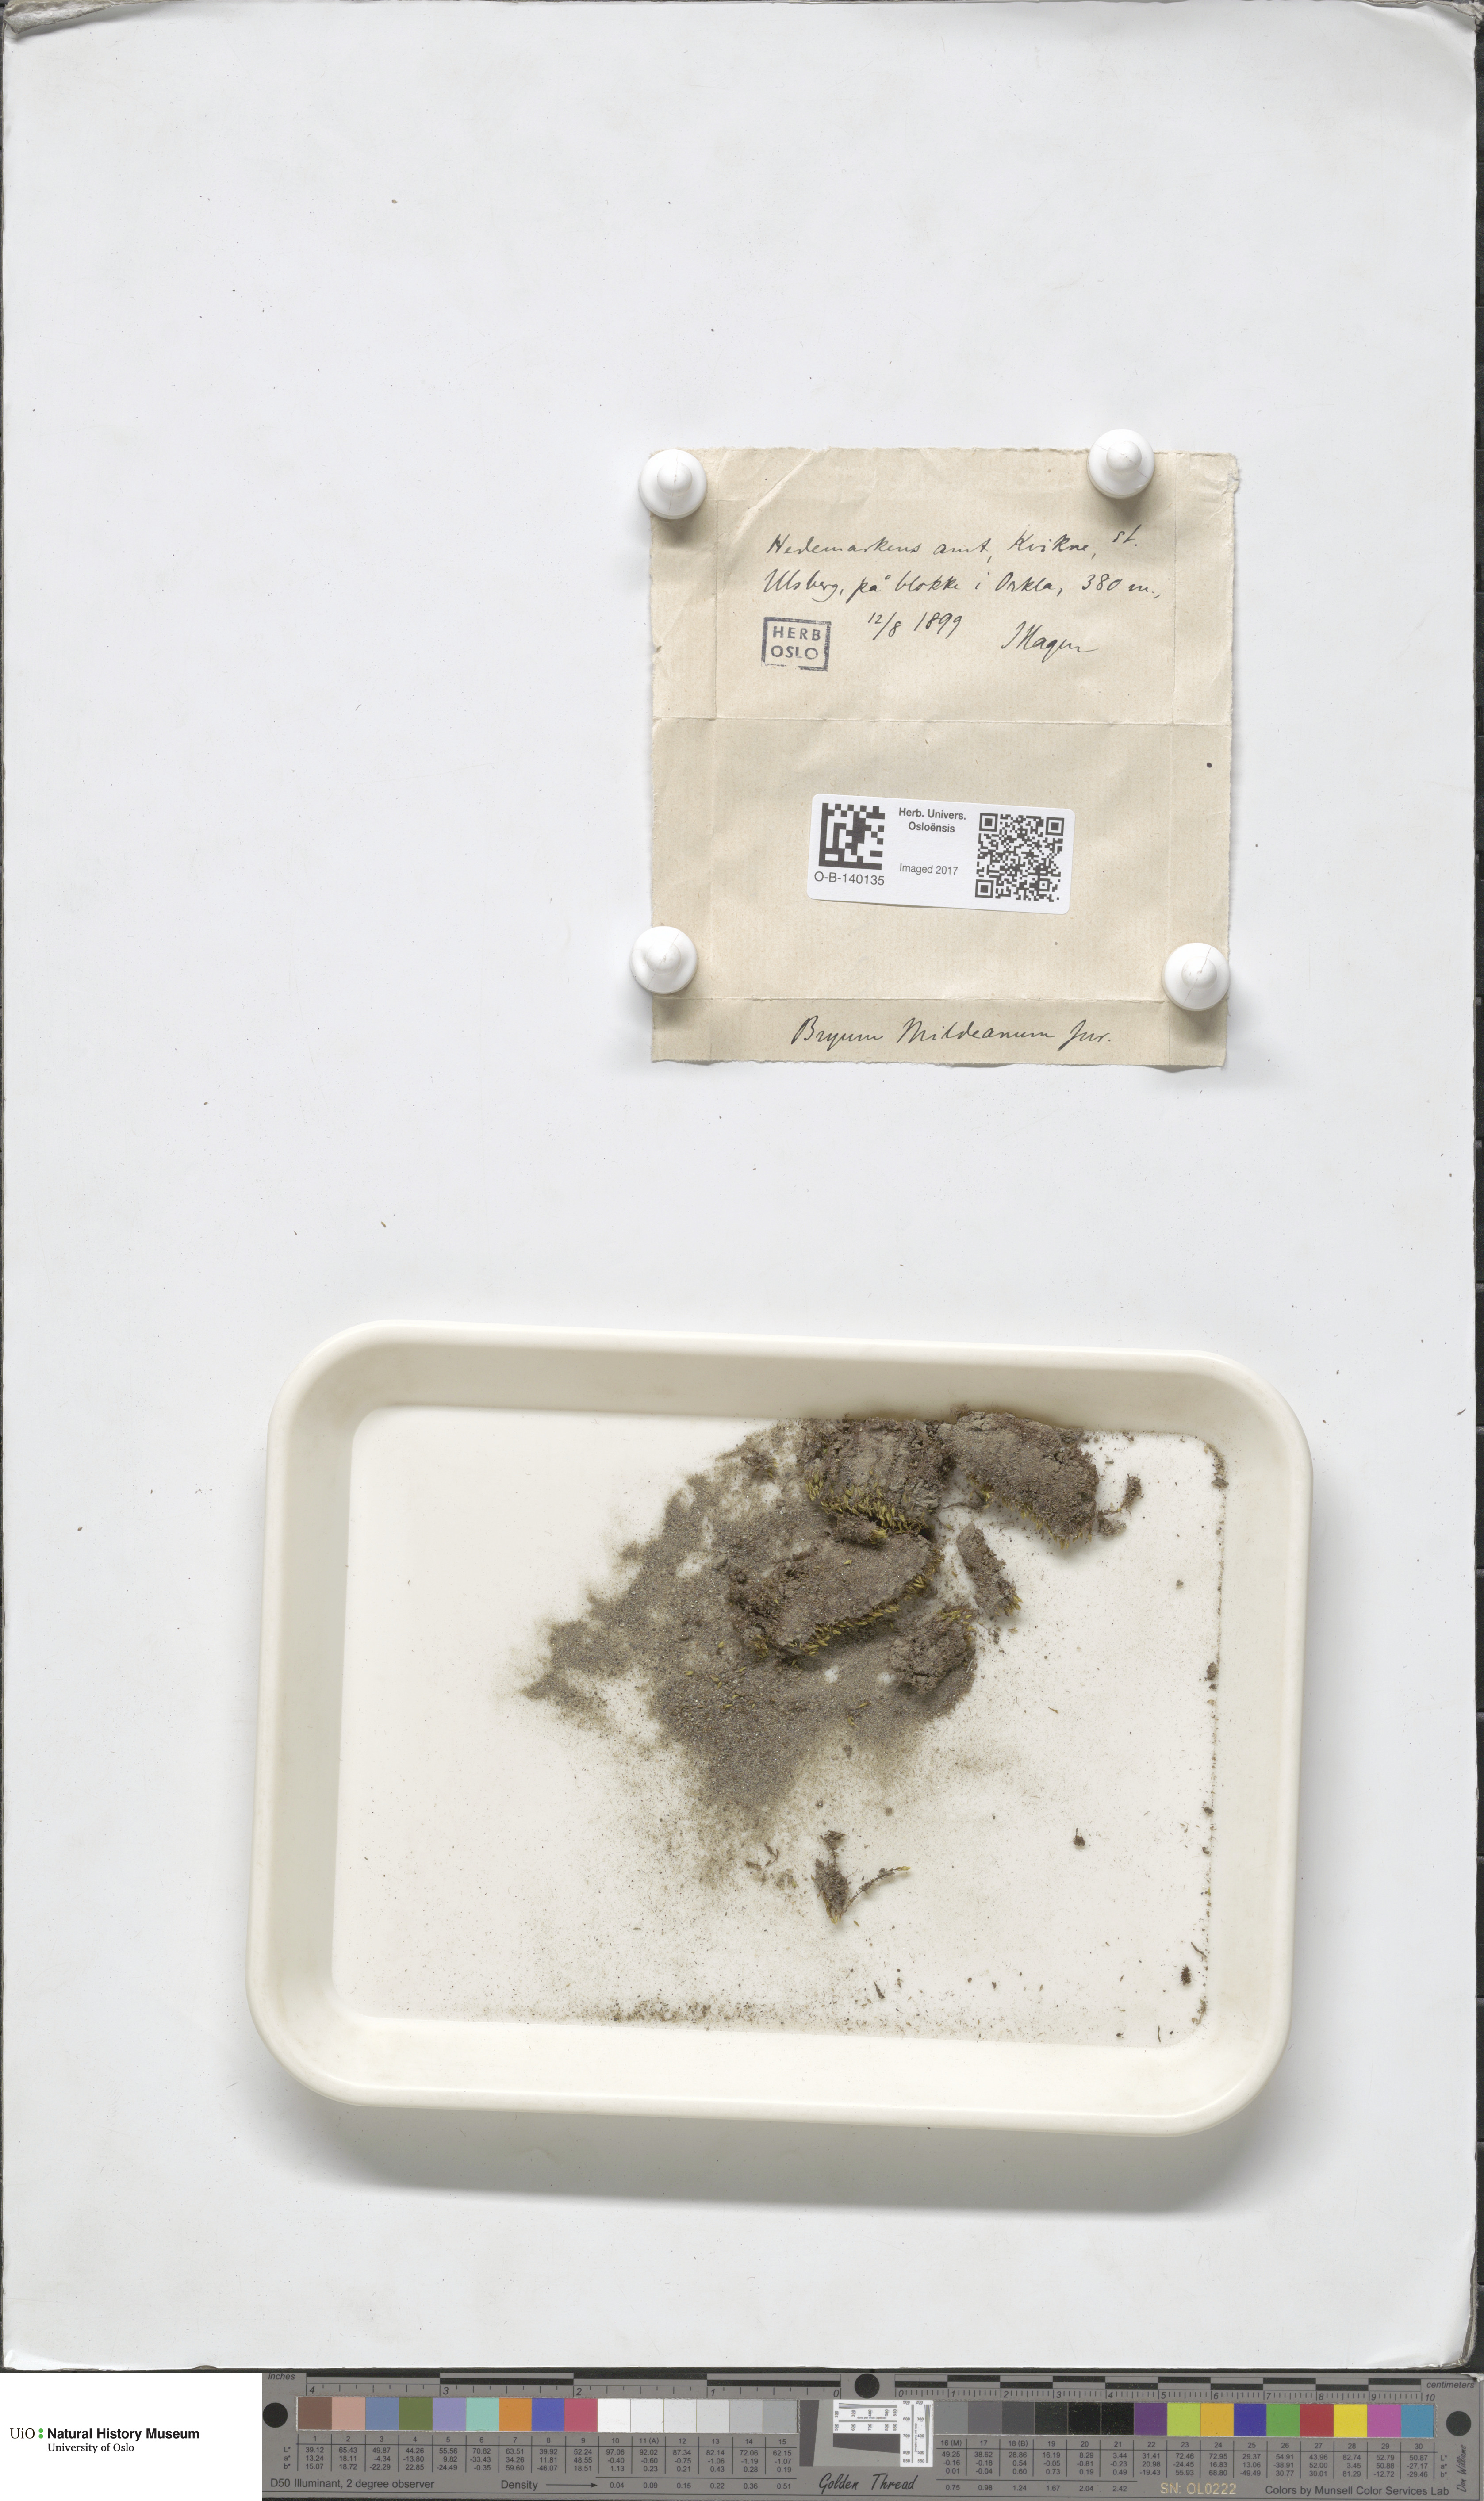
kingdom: Plantae
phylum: Bryophyta
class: Bryopsida
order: Bryales
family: Bryaceae
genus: Imbribryum
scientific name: Imbribryum mildeanum
